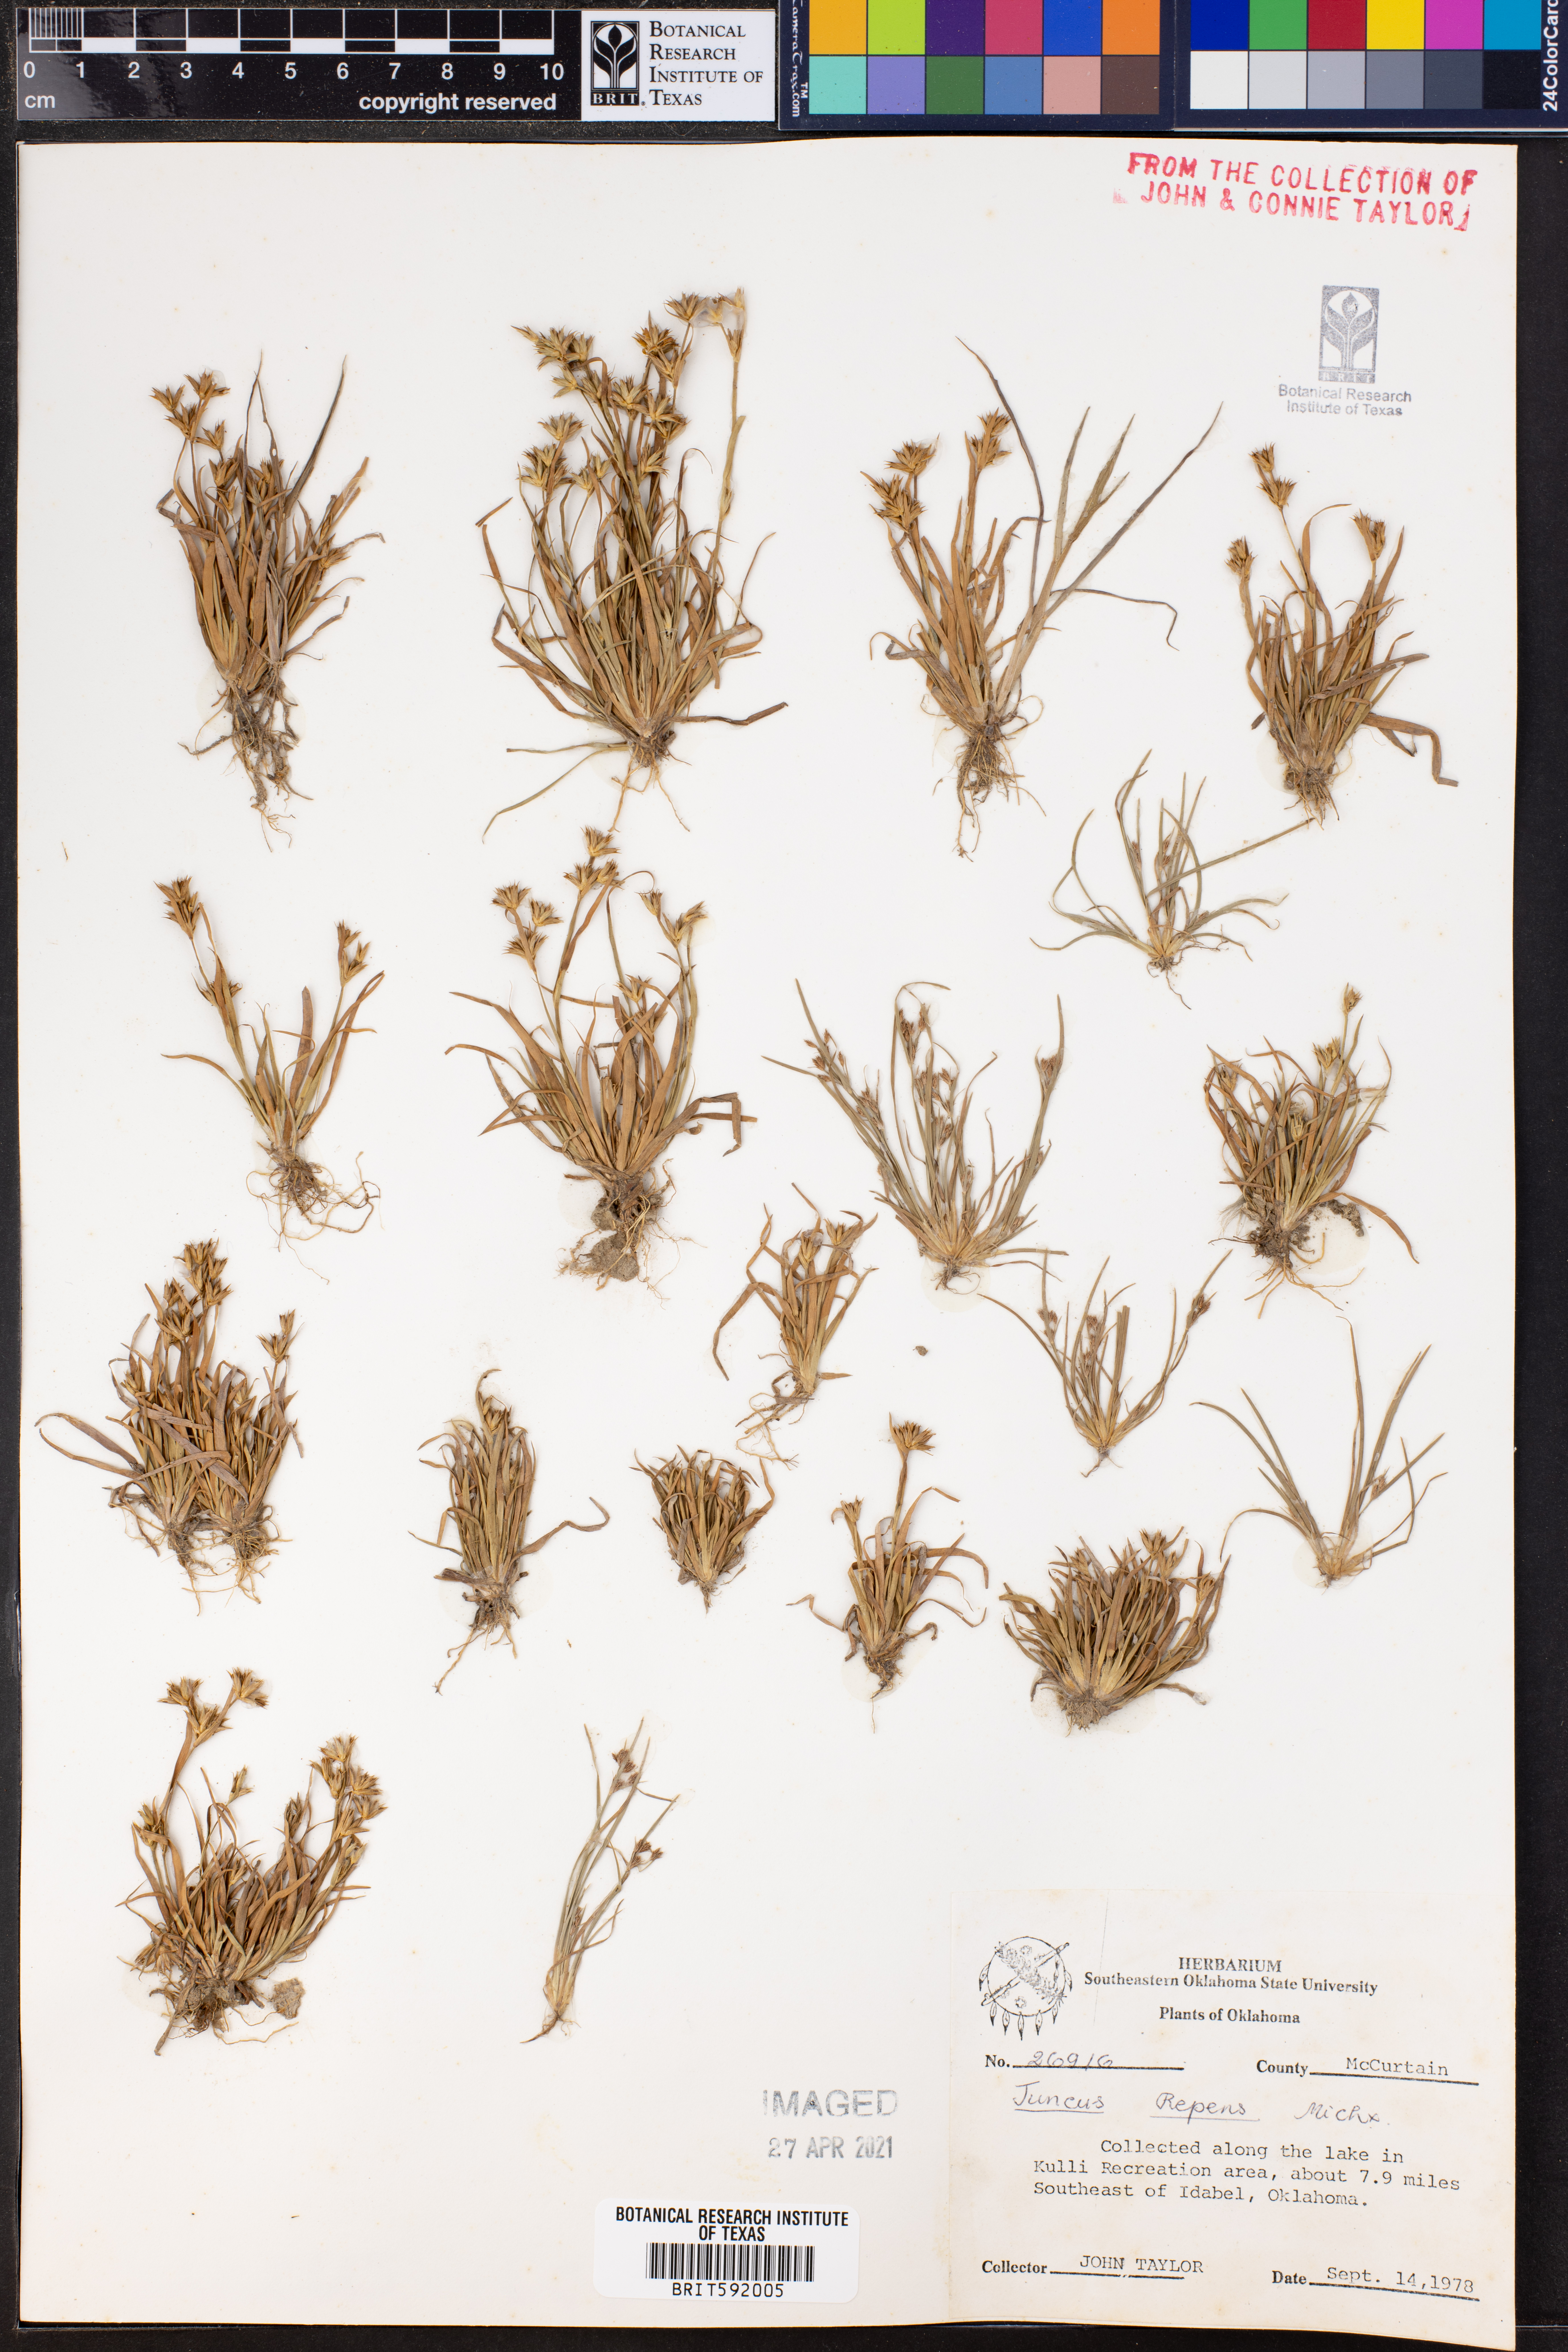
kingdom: Plantae
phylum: Tracheophyta
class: Liliopsida
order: Poales
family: Juncaceae
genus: Juncus
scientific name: Juncus repens
